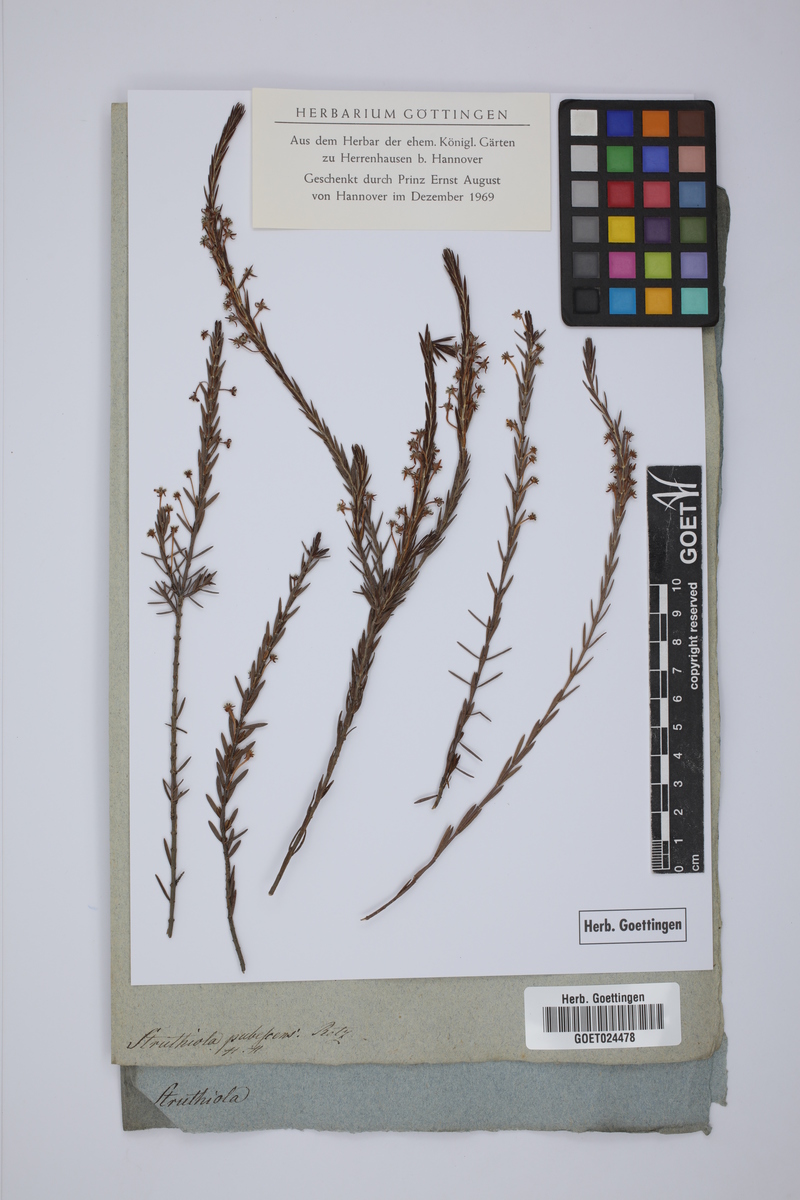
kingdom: Plantae
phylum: Tracheophyta
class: Magnoliopsida
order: Malvales
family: Thymelaeaceae
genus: Struthiola
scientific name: Struthiola ciliata
